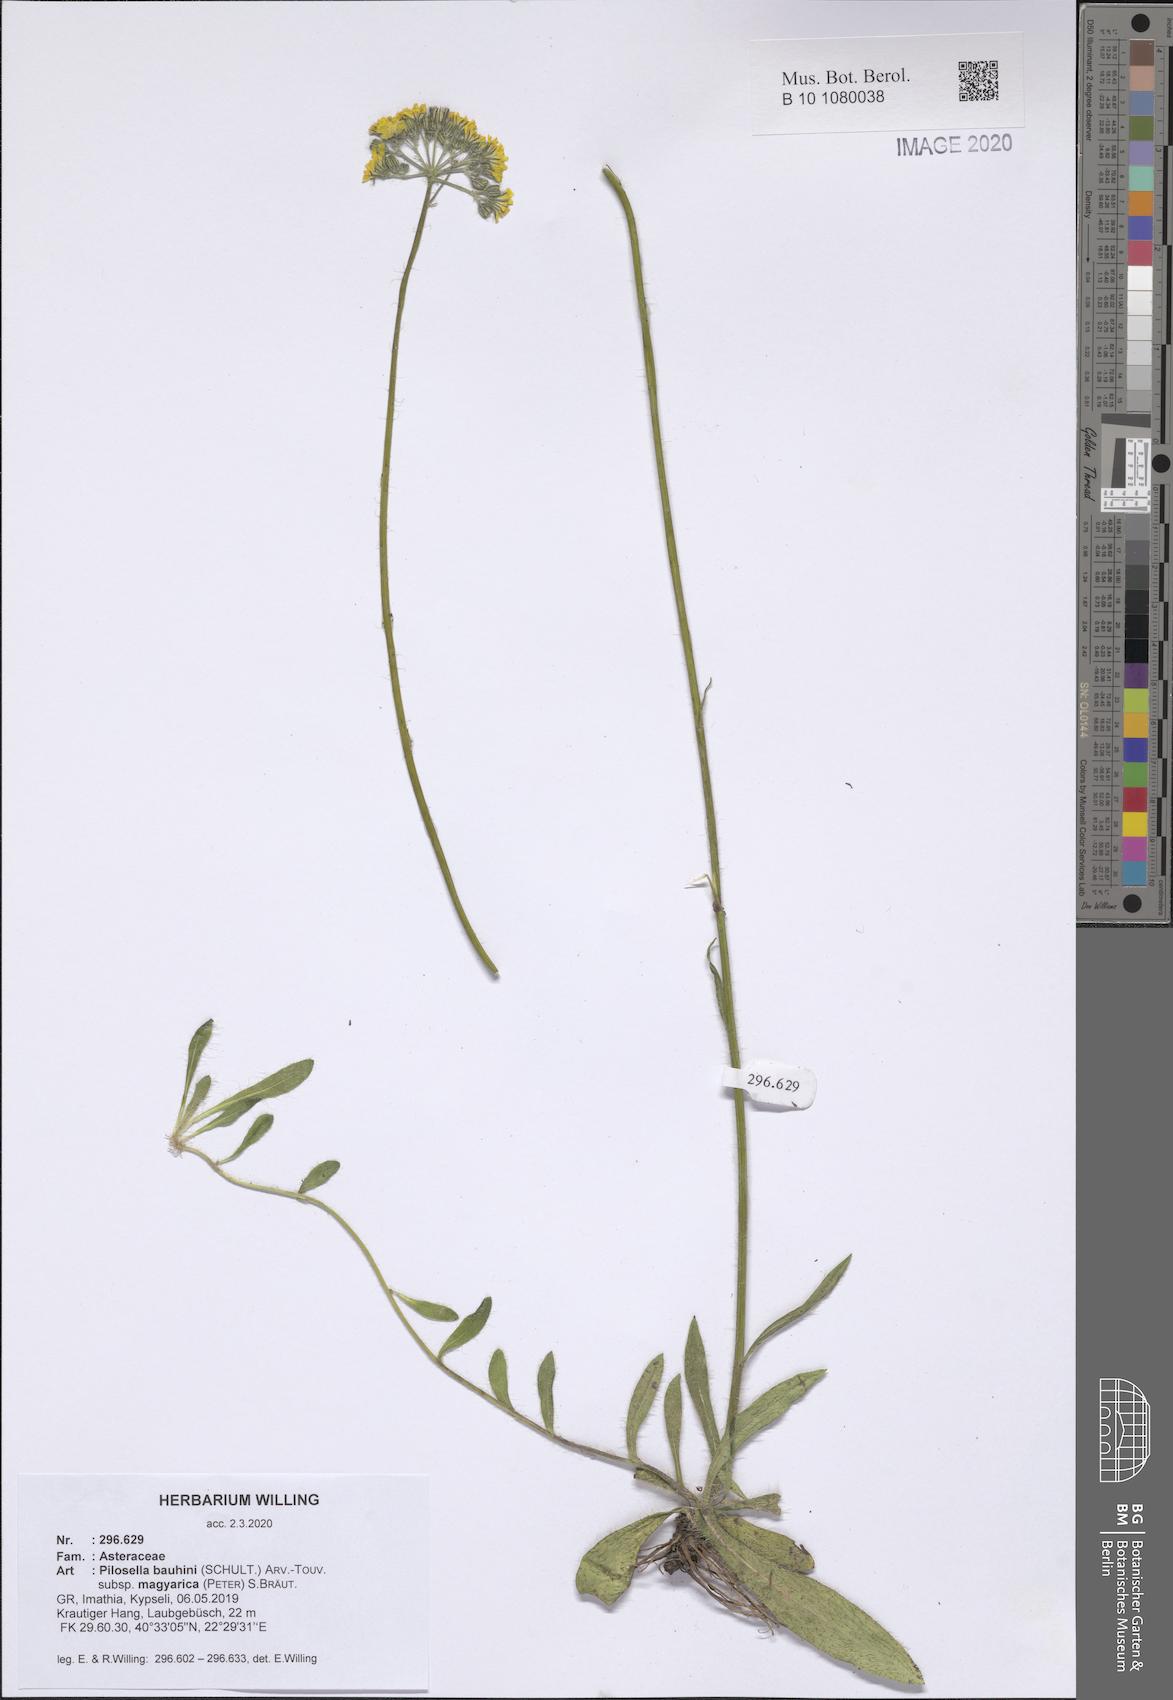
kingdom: Plantae
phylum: Tracheophyta
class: Magnoliopsida
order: Asterales
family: Asteraceae
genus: Pilosella
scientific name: Pilosella bauhini
